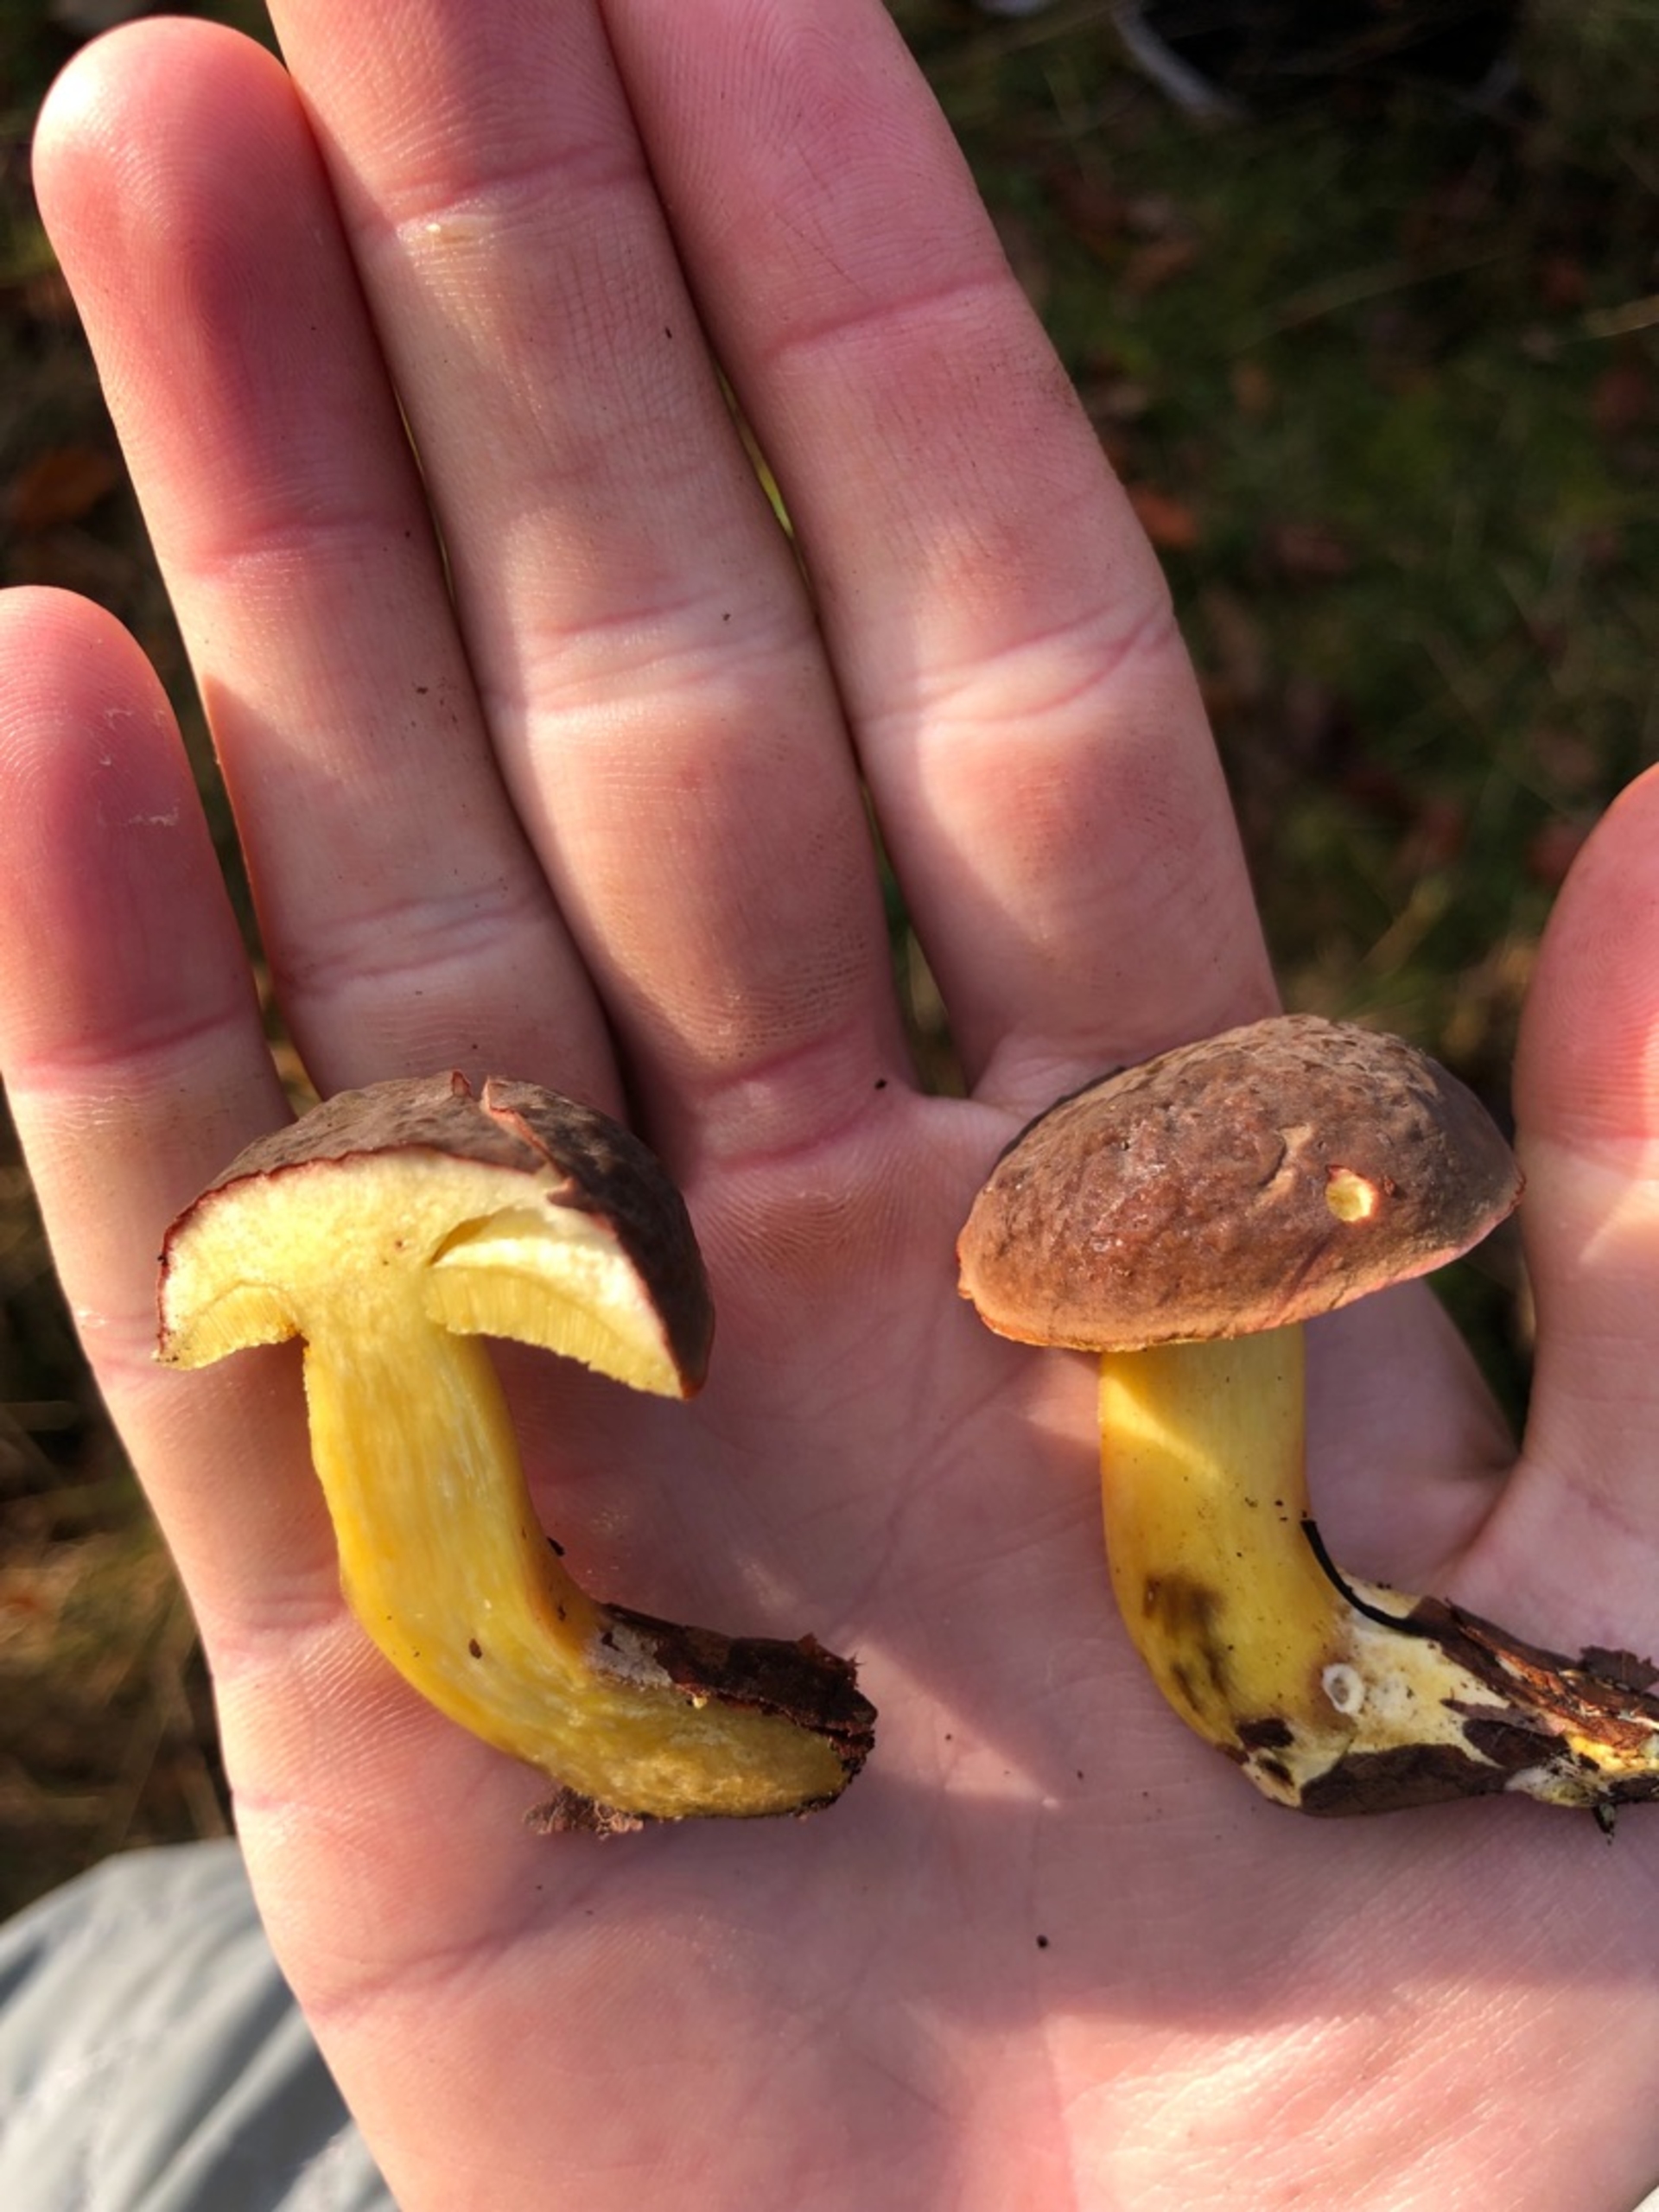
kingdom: Fungi
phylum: Basidiomycota
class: Agaricomycetes
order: Boletales
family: Boletaceae
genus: Xerocomellus
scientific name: Xerocomellus pruinatus
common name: Dugget rørhat
